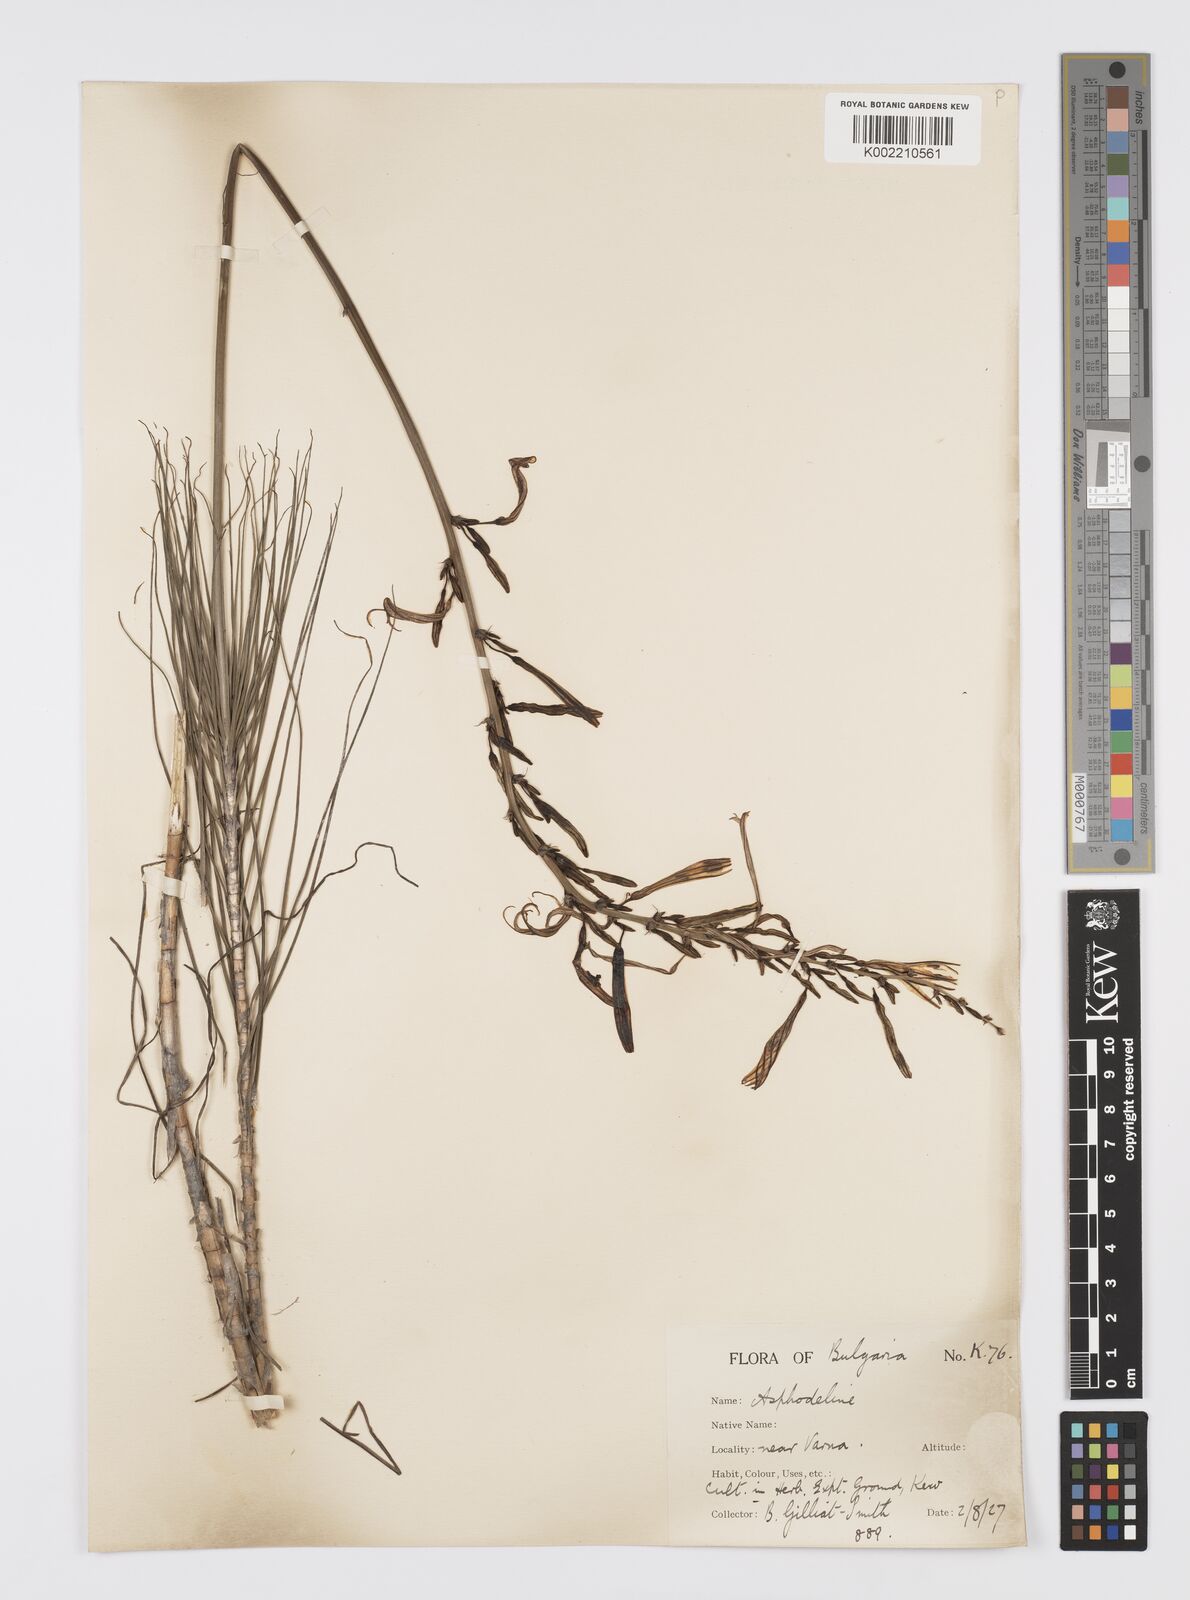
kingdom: Plantae
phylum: Tracheophyta
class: Liliopsida
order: Asparagales
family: Asphodelaceae
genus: Asphodeline
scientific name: Asphodeline liburnica
